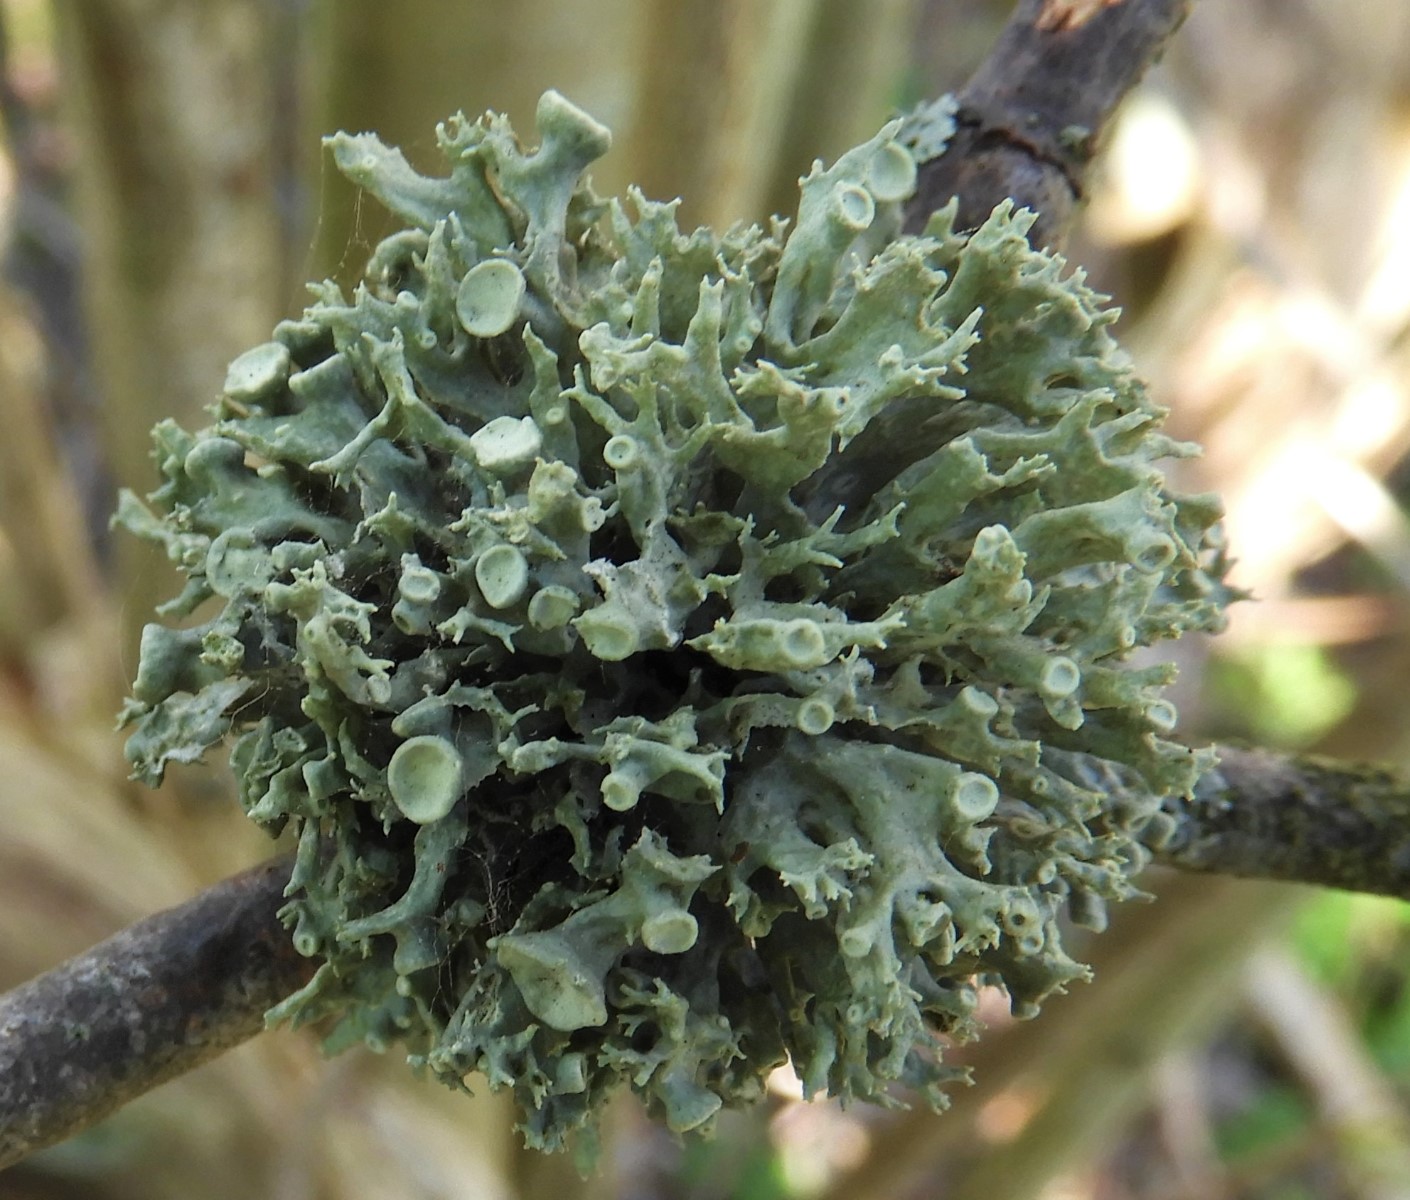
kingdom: Fungi
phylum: Ascomycota
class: Lecanoromycetes
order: Lecanorales
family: Ramalinaceae
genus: Ramalina
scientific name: Ramalina fastigiata
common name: tue-grenlav
